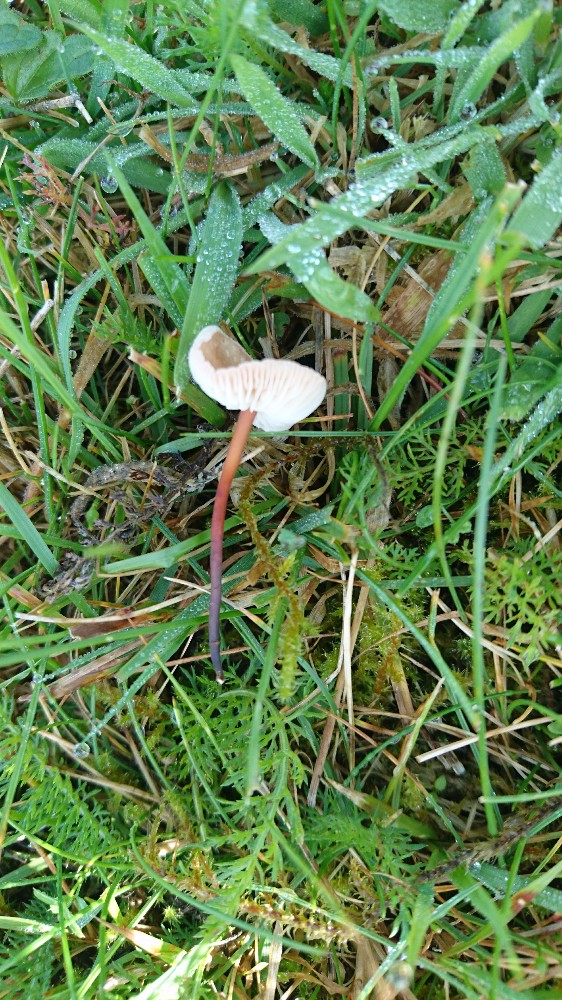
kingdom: Fungi
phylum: Basidiomycota
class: Agaricomycetes
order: Agaricales
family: Omphalotaceae
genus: Mycetinis
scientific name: Mycetinis scorodonius
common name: lille løghat
